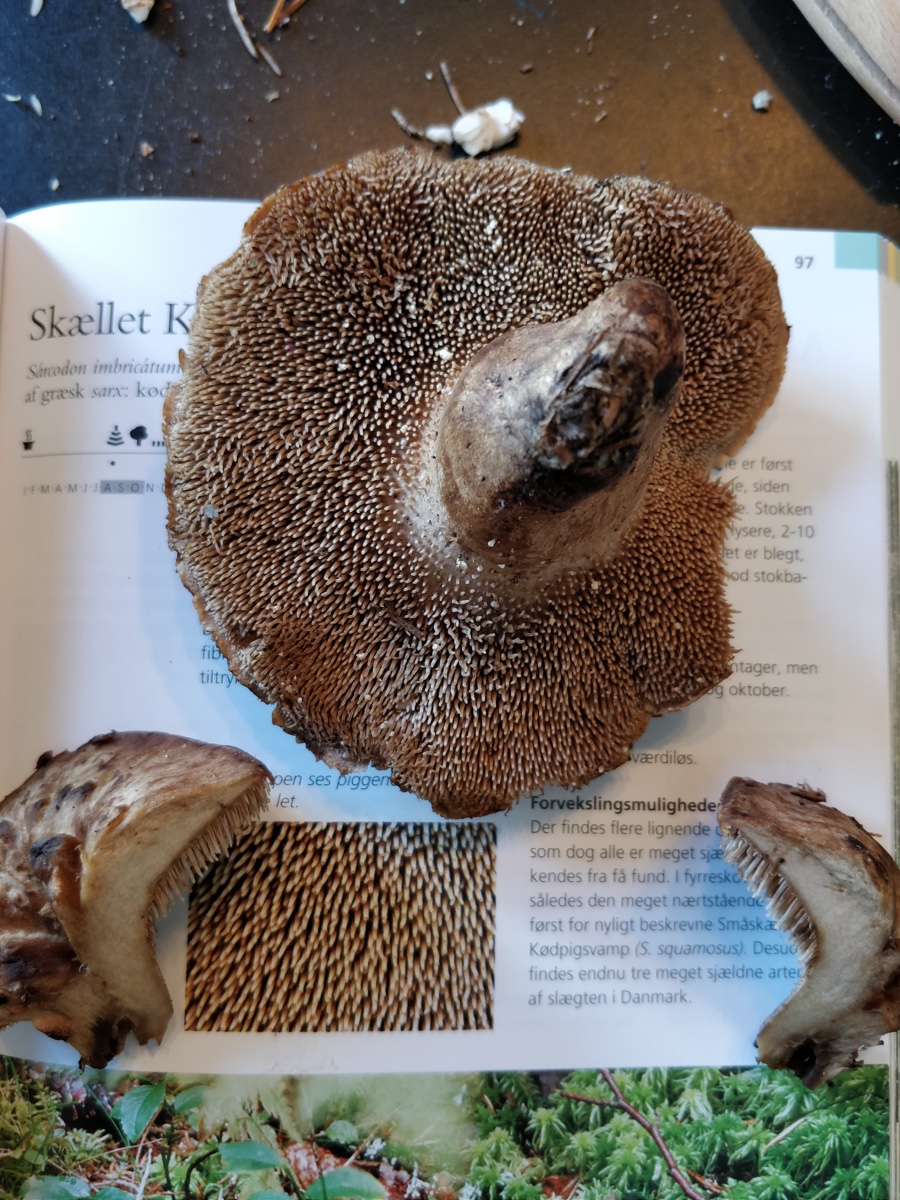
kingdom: Fungi
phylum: Basidiomycota
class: Agaricomycetes
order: Thelephorales
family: Bankeraceae
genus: Sarcodon
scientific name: Sarcodon imbricatus
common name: skællet kødpigsvamp
